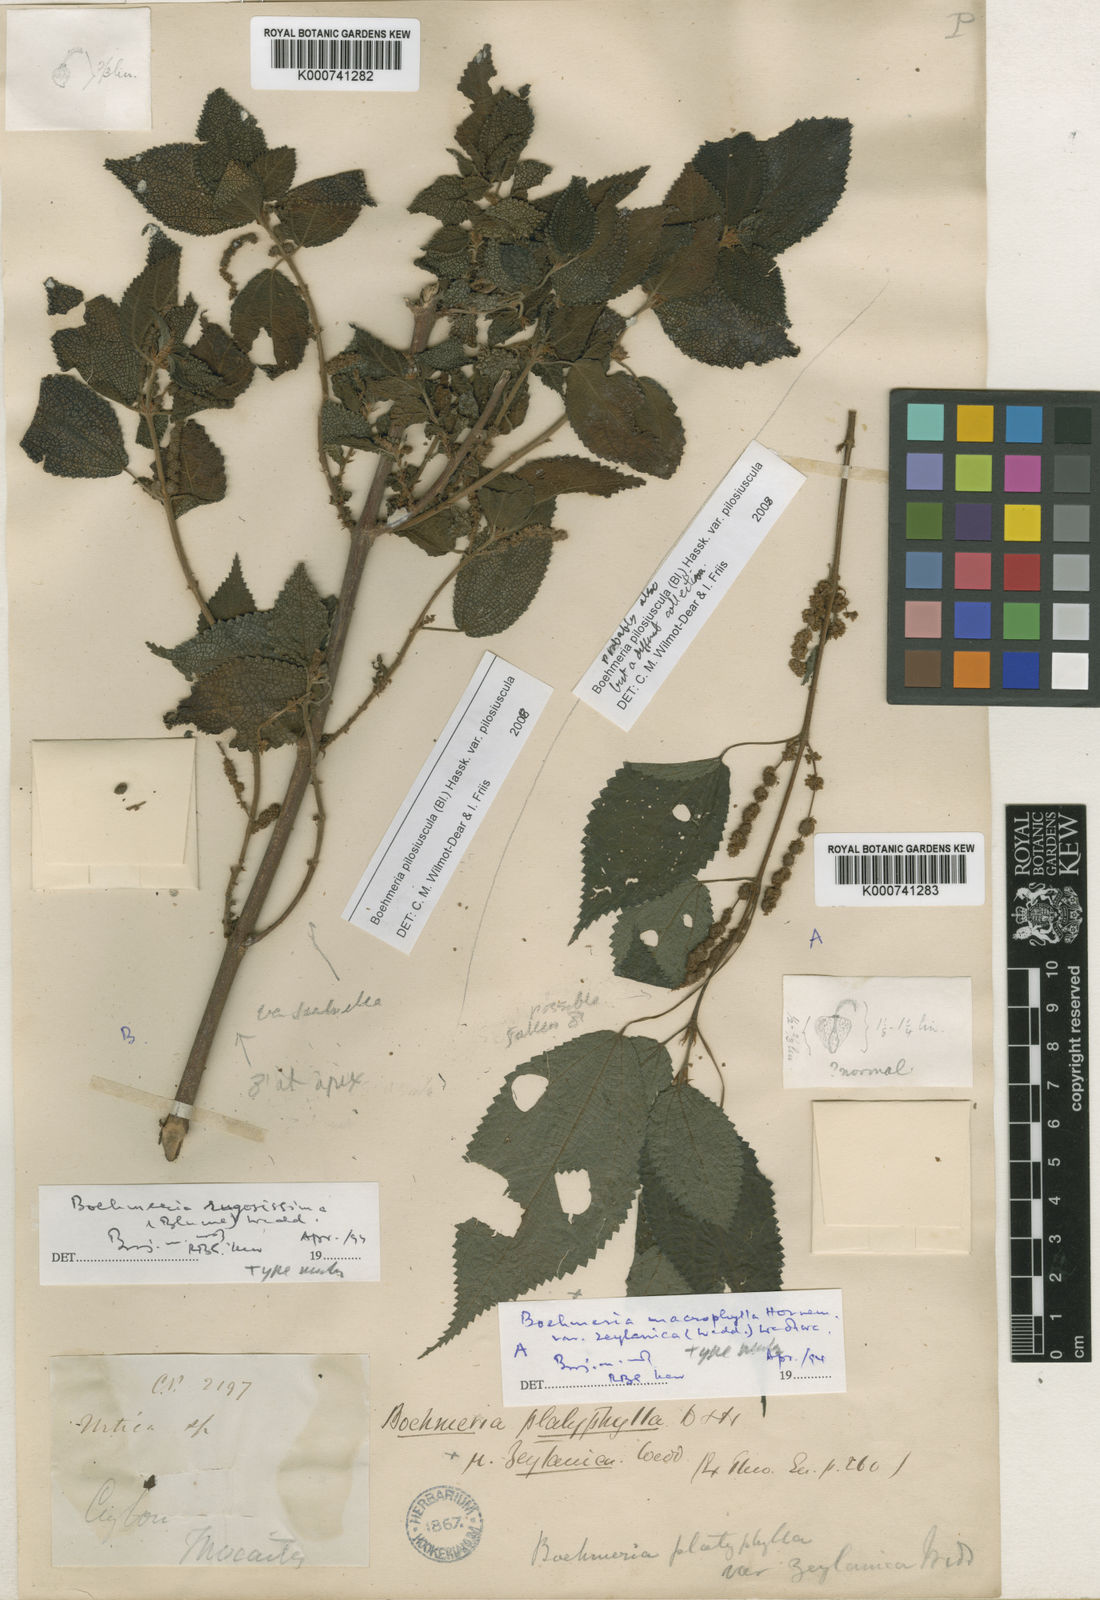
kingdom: Plantae
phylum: Tracheophyta
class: Magnoliopsida
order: Rosales
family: Urticaceae
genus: Boehmeria
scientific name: Boehmeria pilosiuscula
